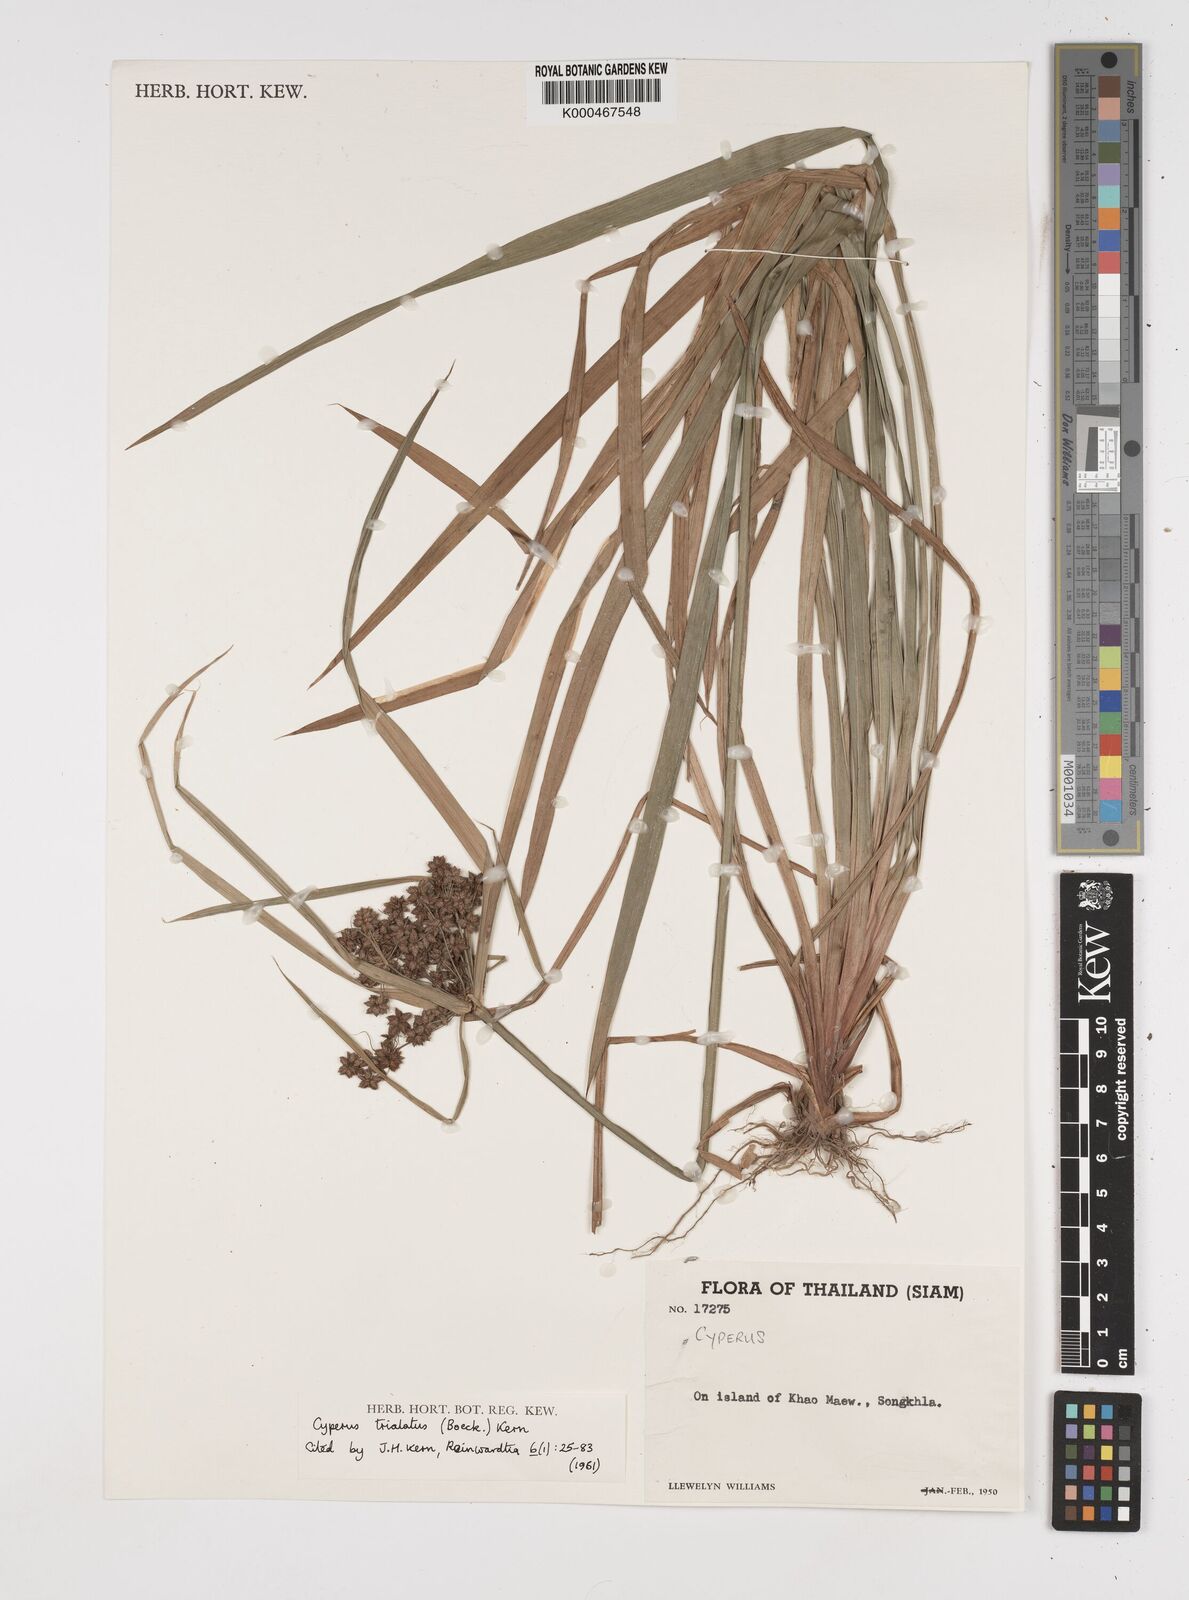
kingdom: Plantae
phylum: Tracheophyta
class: Liliopsida
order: Poales
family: Cyperaceae
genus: Cyperus
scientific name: Cyperus trialatus
